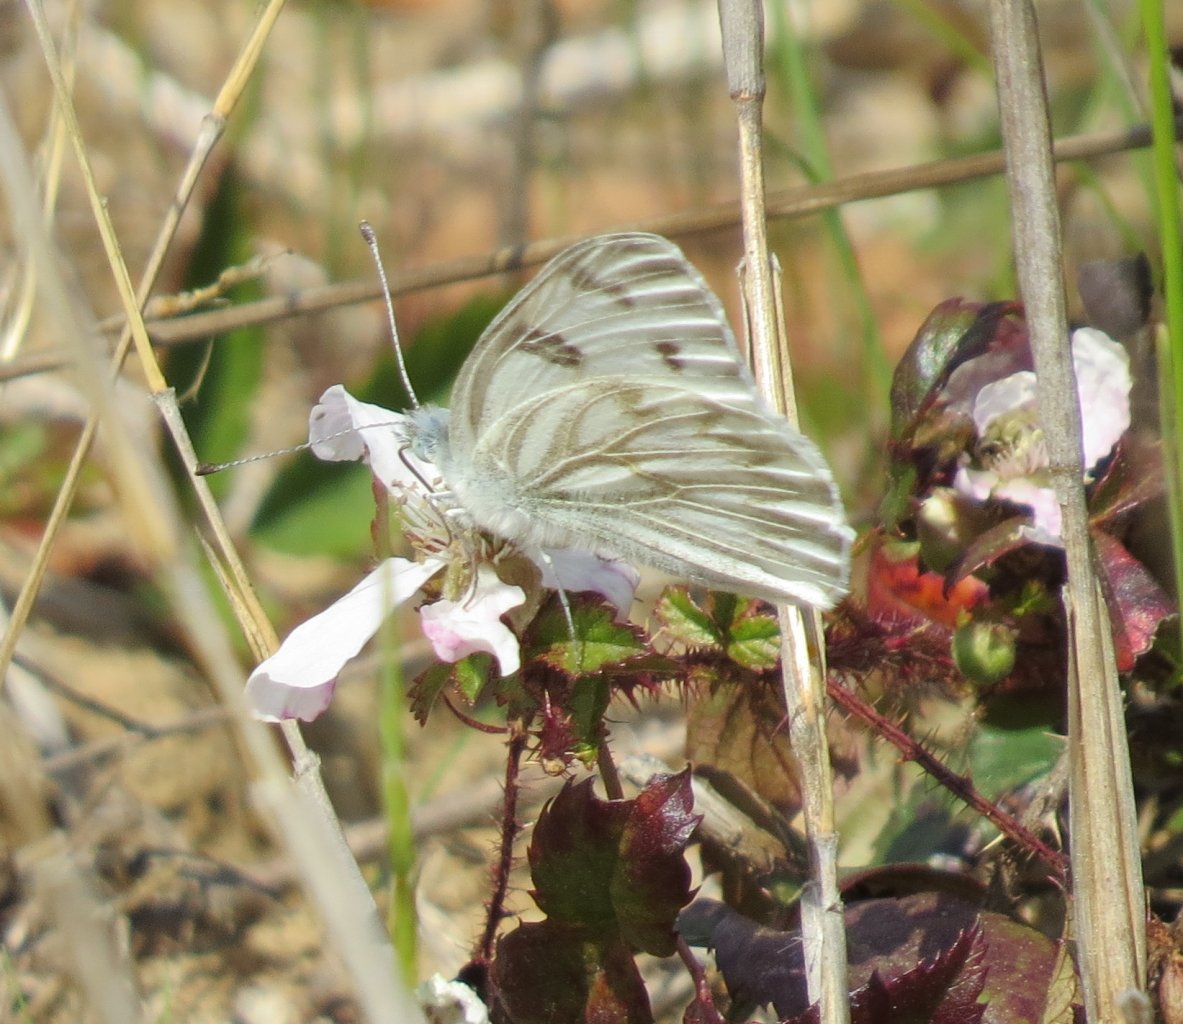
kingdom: Animalia
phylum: Arthropoda
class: Insecta
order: Lepidoptera
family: Pieridae
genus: Pontia
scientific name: Pontia protodice
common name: Checkered White
